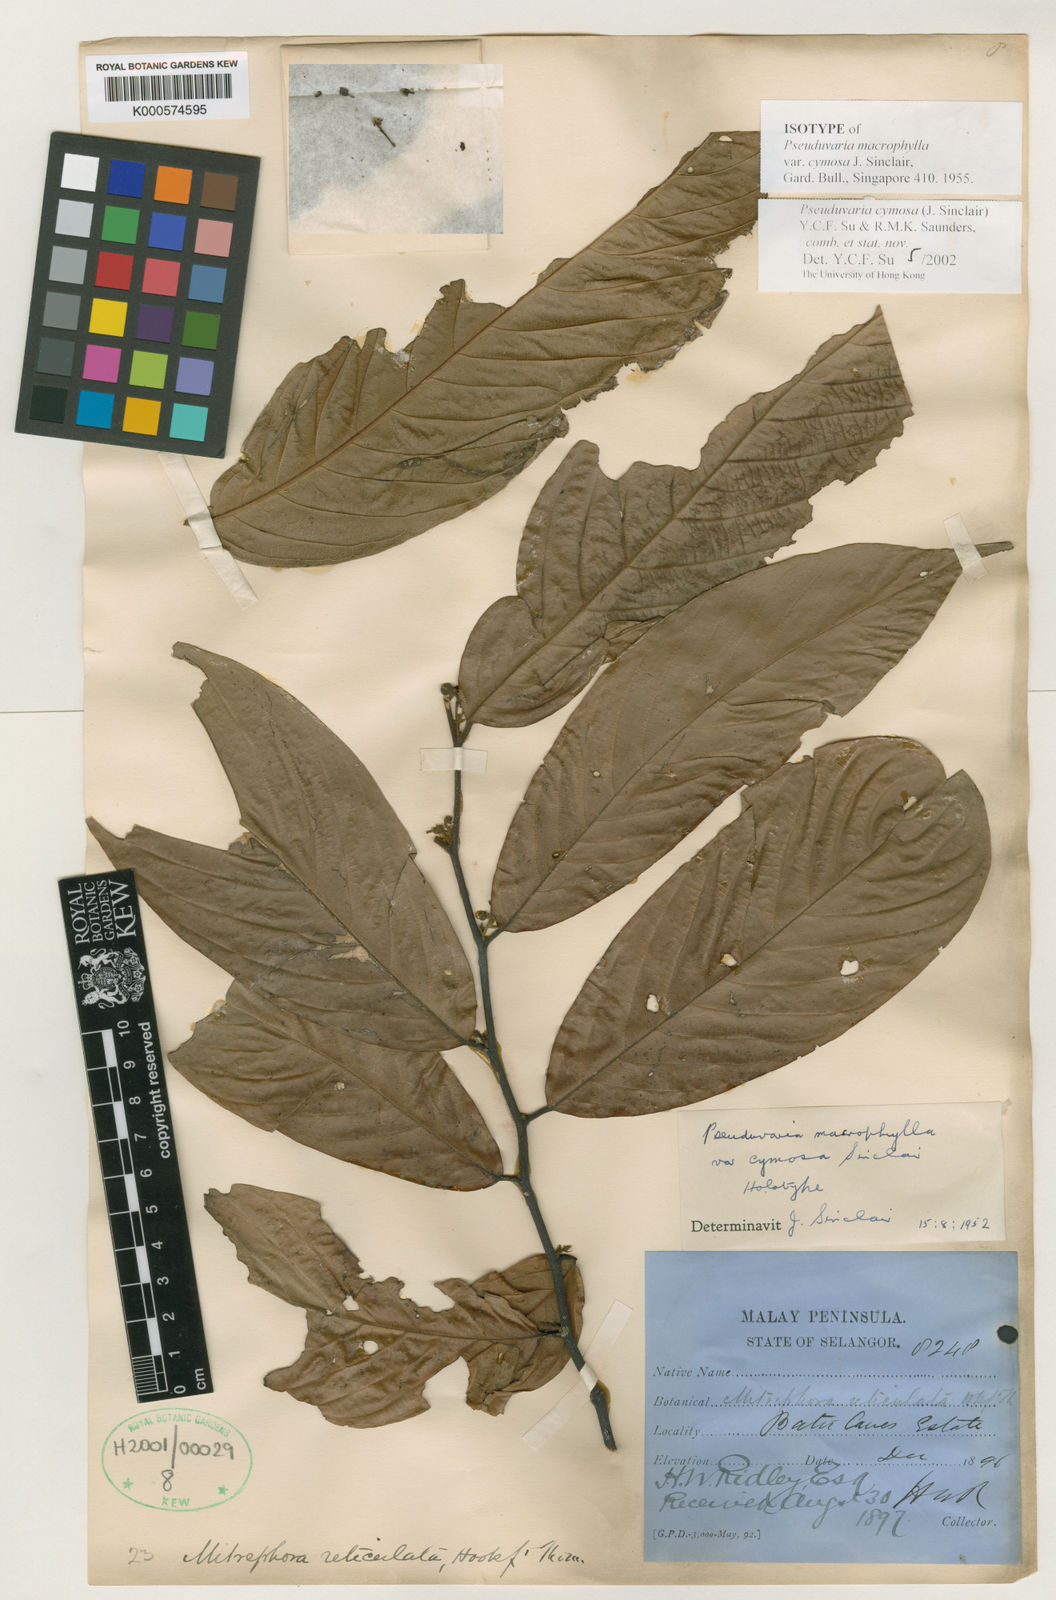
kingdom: Plantae
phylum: Tracheophyta
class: Magnoliopsida
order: Magnoliales
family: Annonaceae
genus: Pseuduvaria
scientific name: Pseuduvaria cymosa
